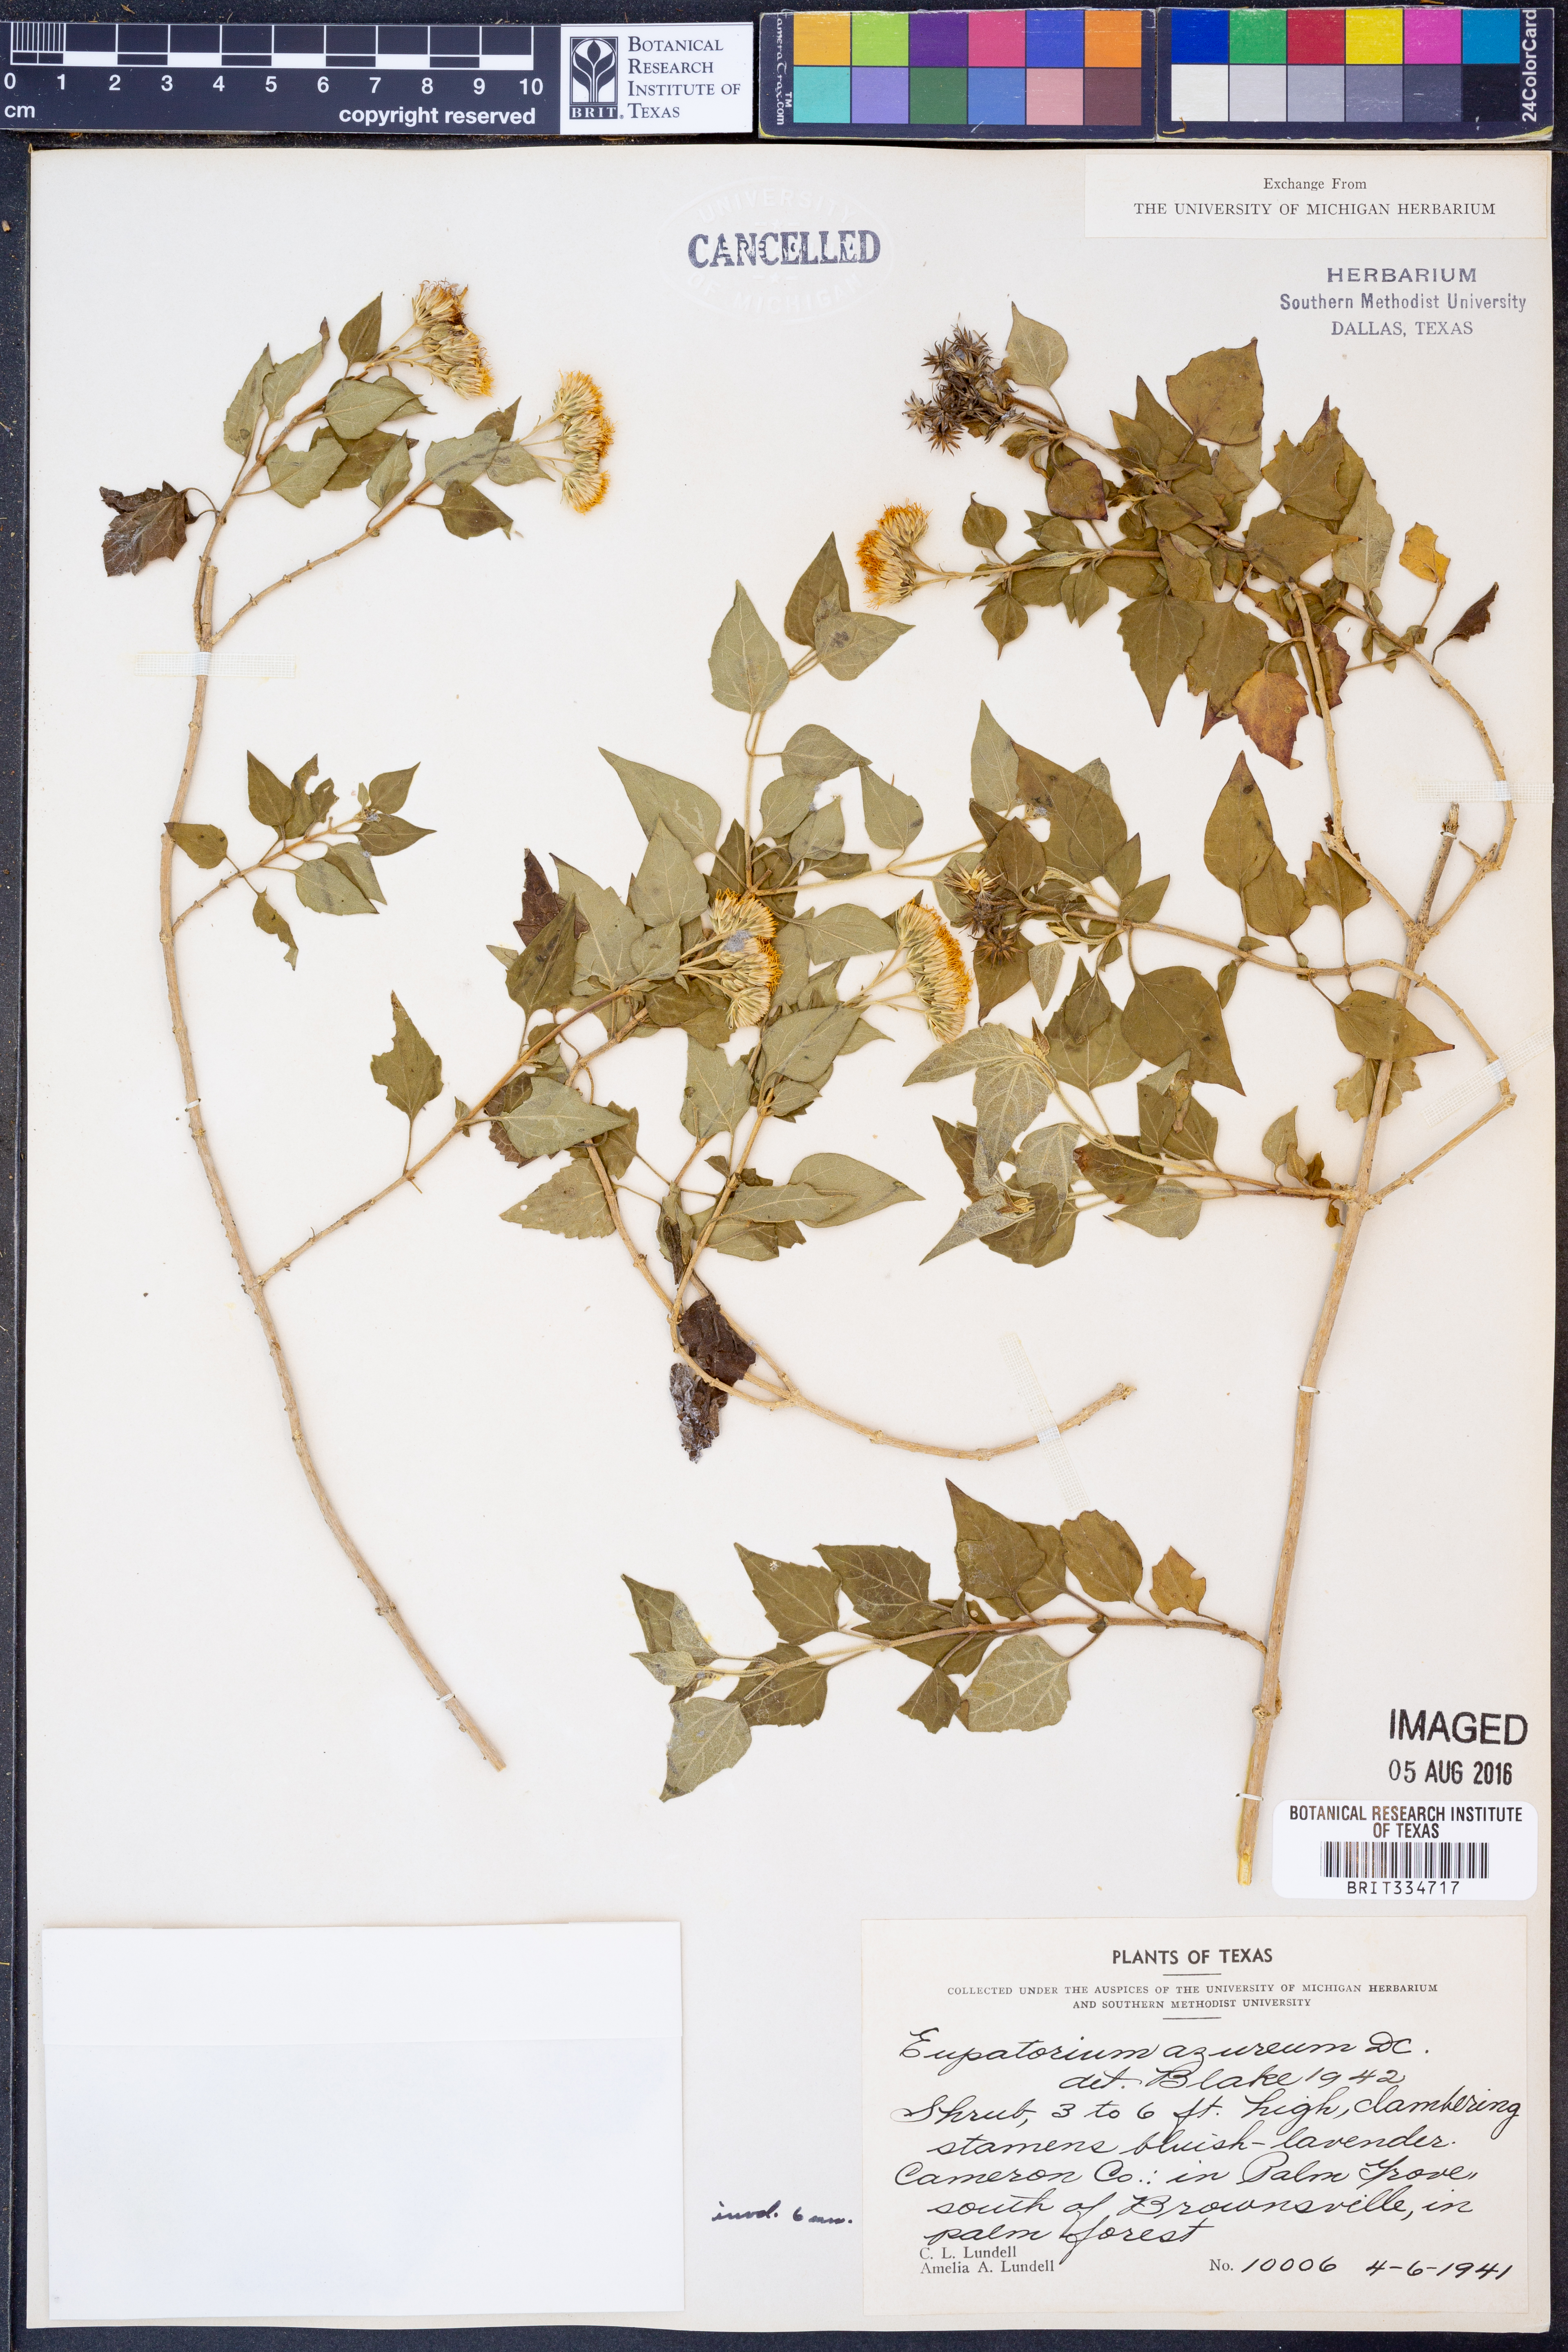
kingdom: Plantae
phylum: Tracheophyta
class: Magnoliopsida
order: Asterales
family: Asteraceae
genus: Tamaulipa
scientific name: Tamaulipa azurea
